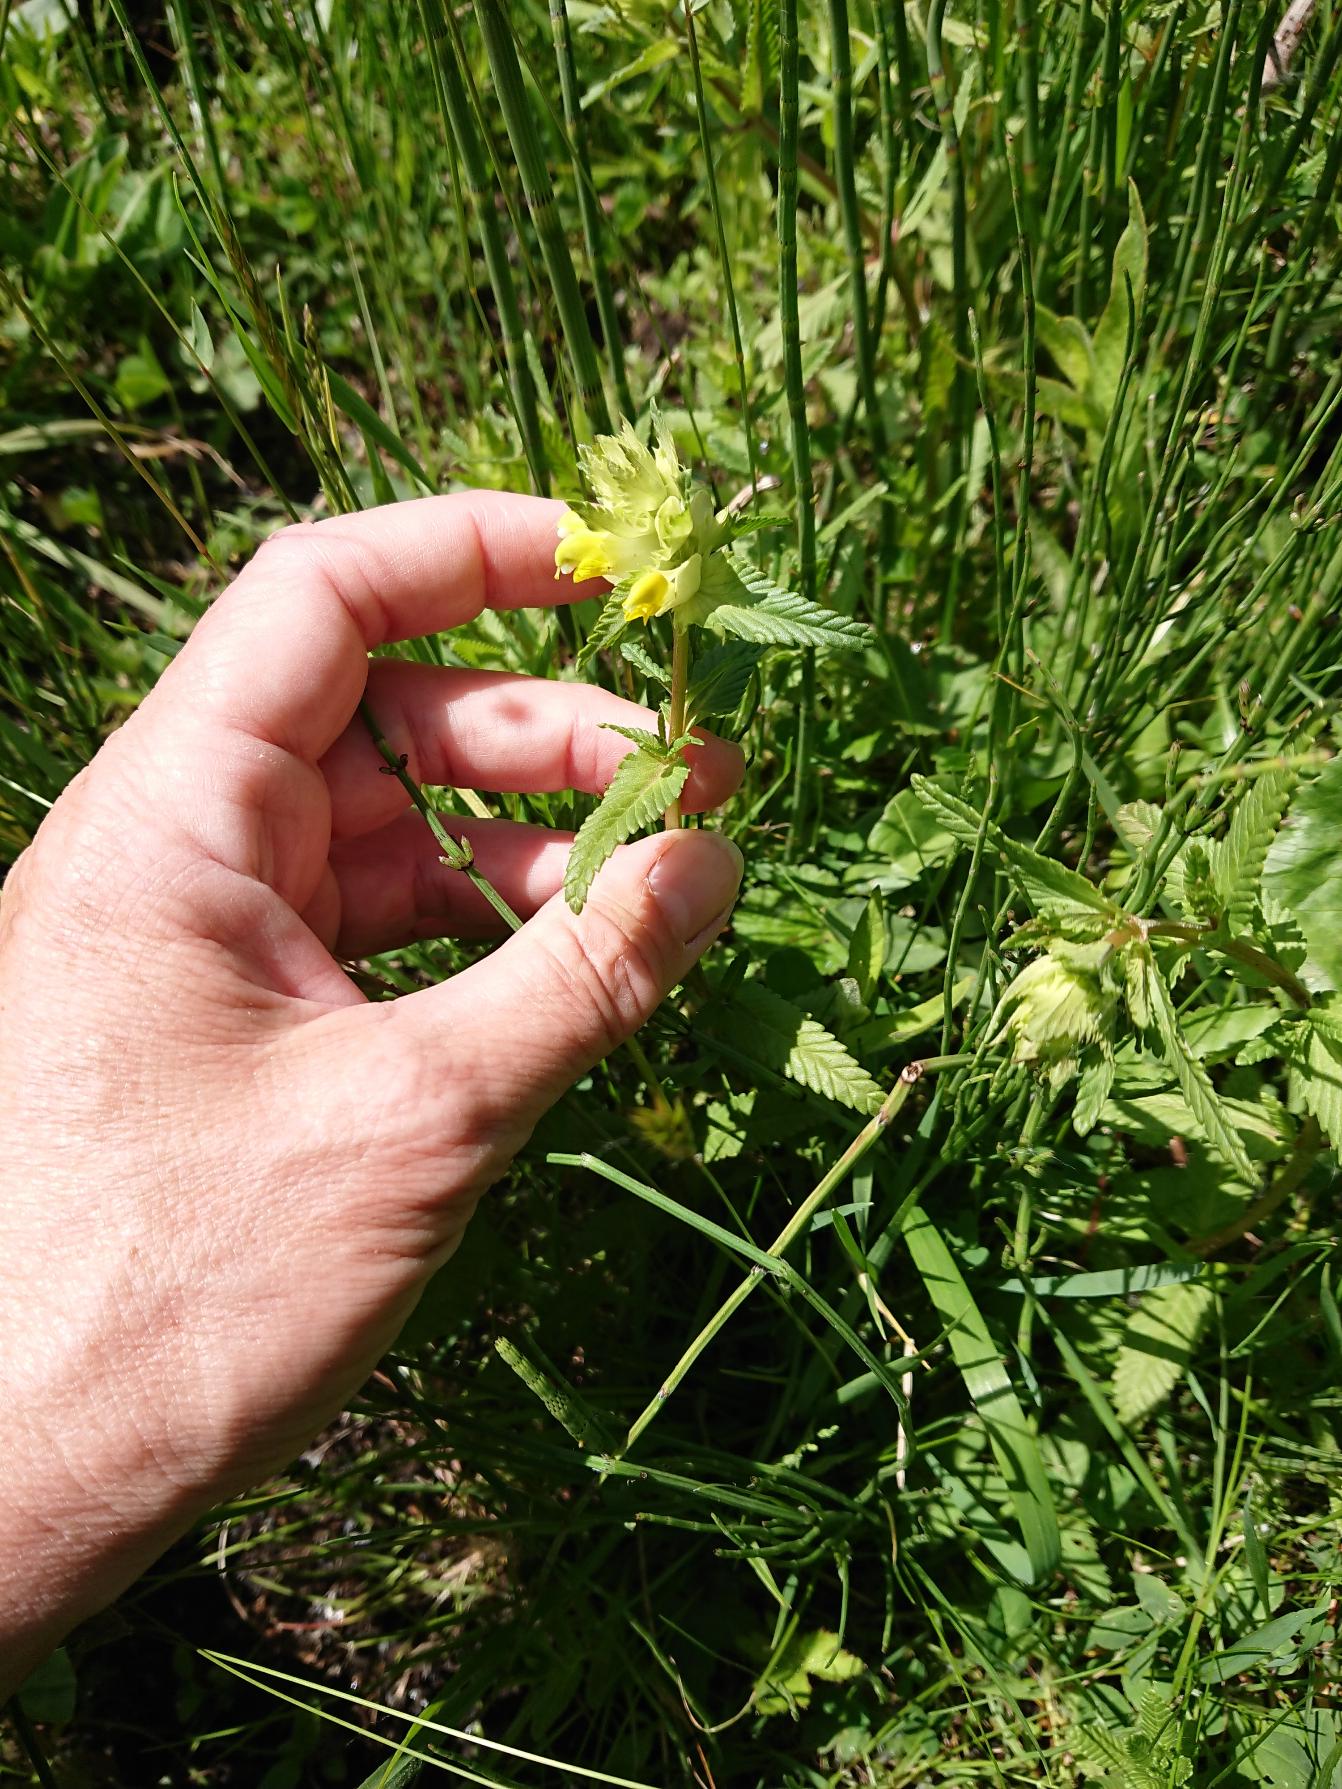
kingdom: Plantae
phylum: Tracheophyta
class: Magnoliopsida
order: Lamiales
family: Orobanchaceae
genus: Rhinanthus
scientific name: Rhinanthus
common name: Stor skjaller
